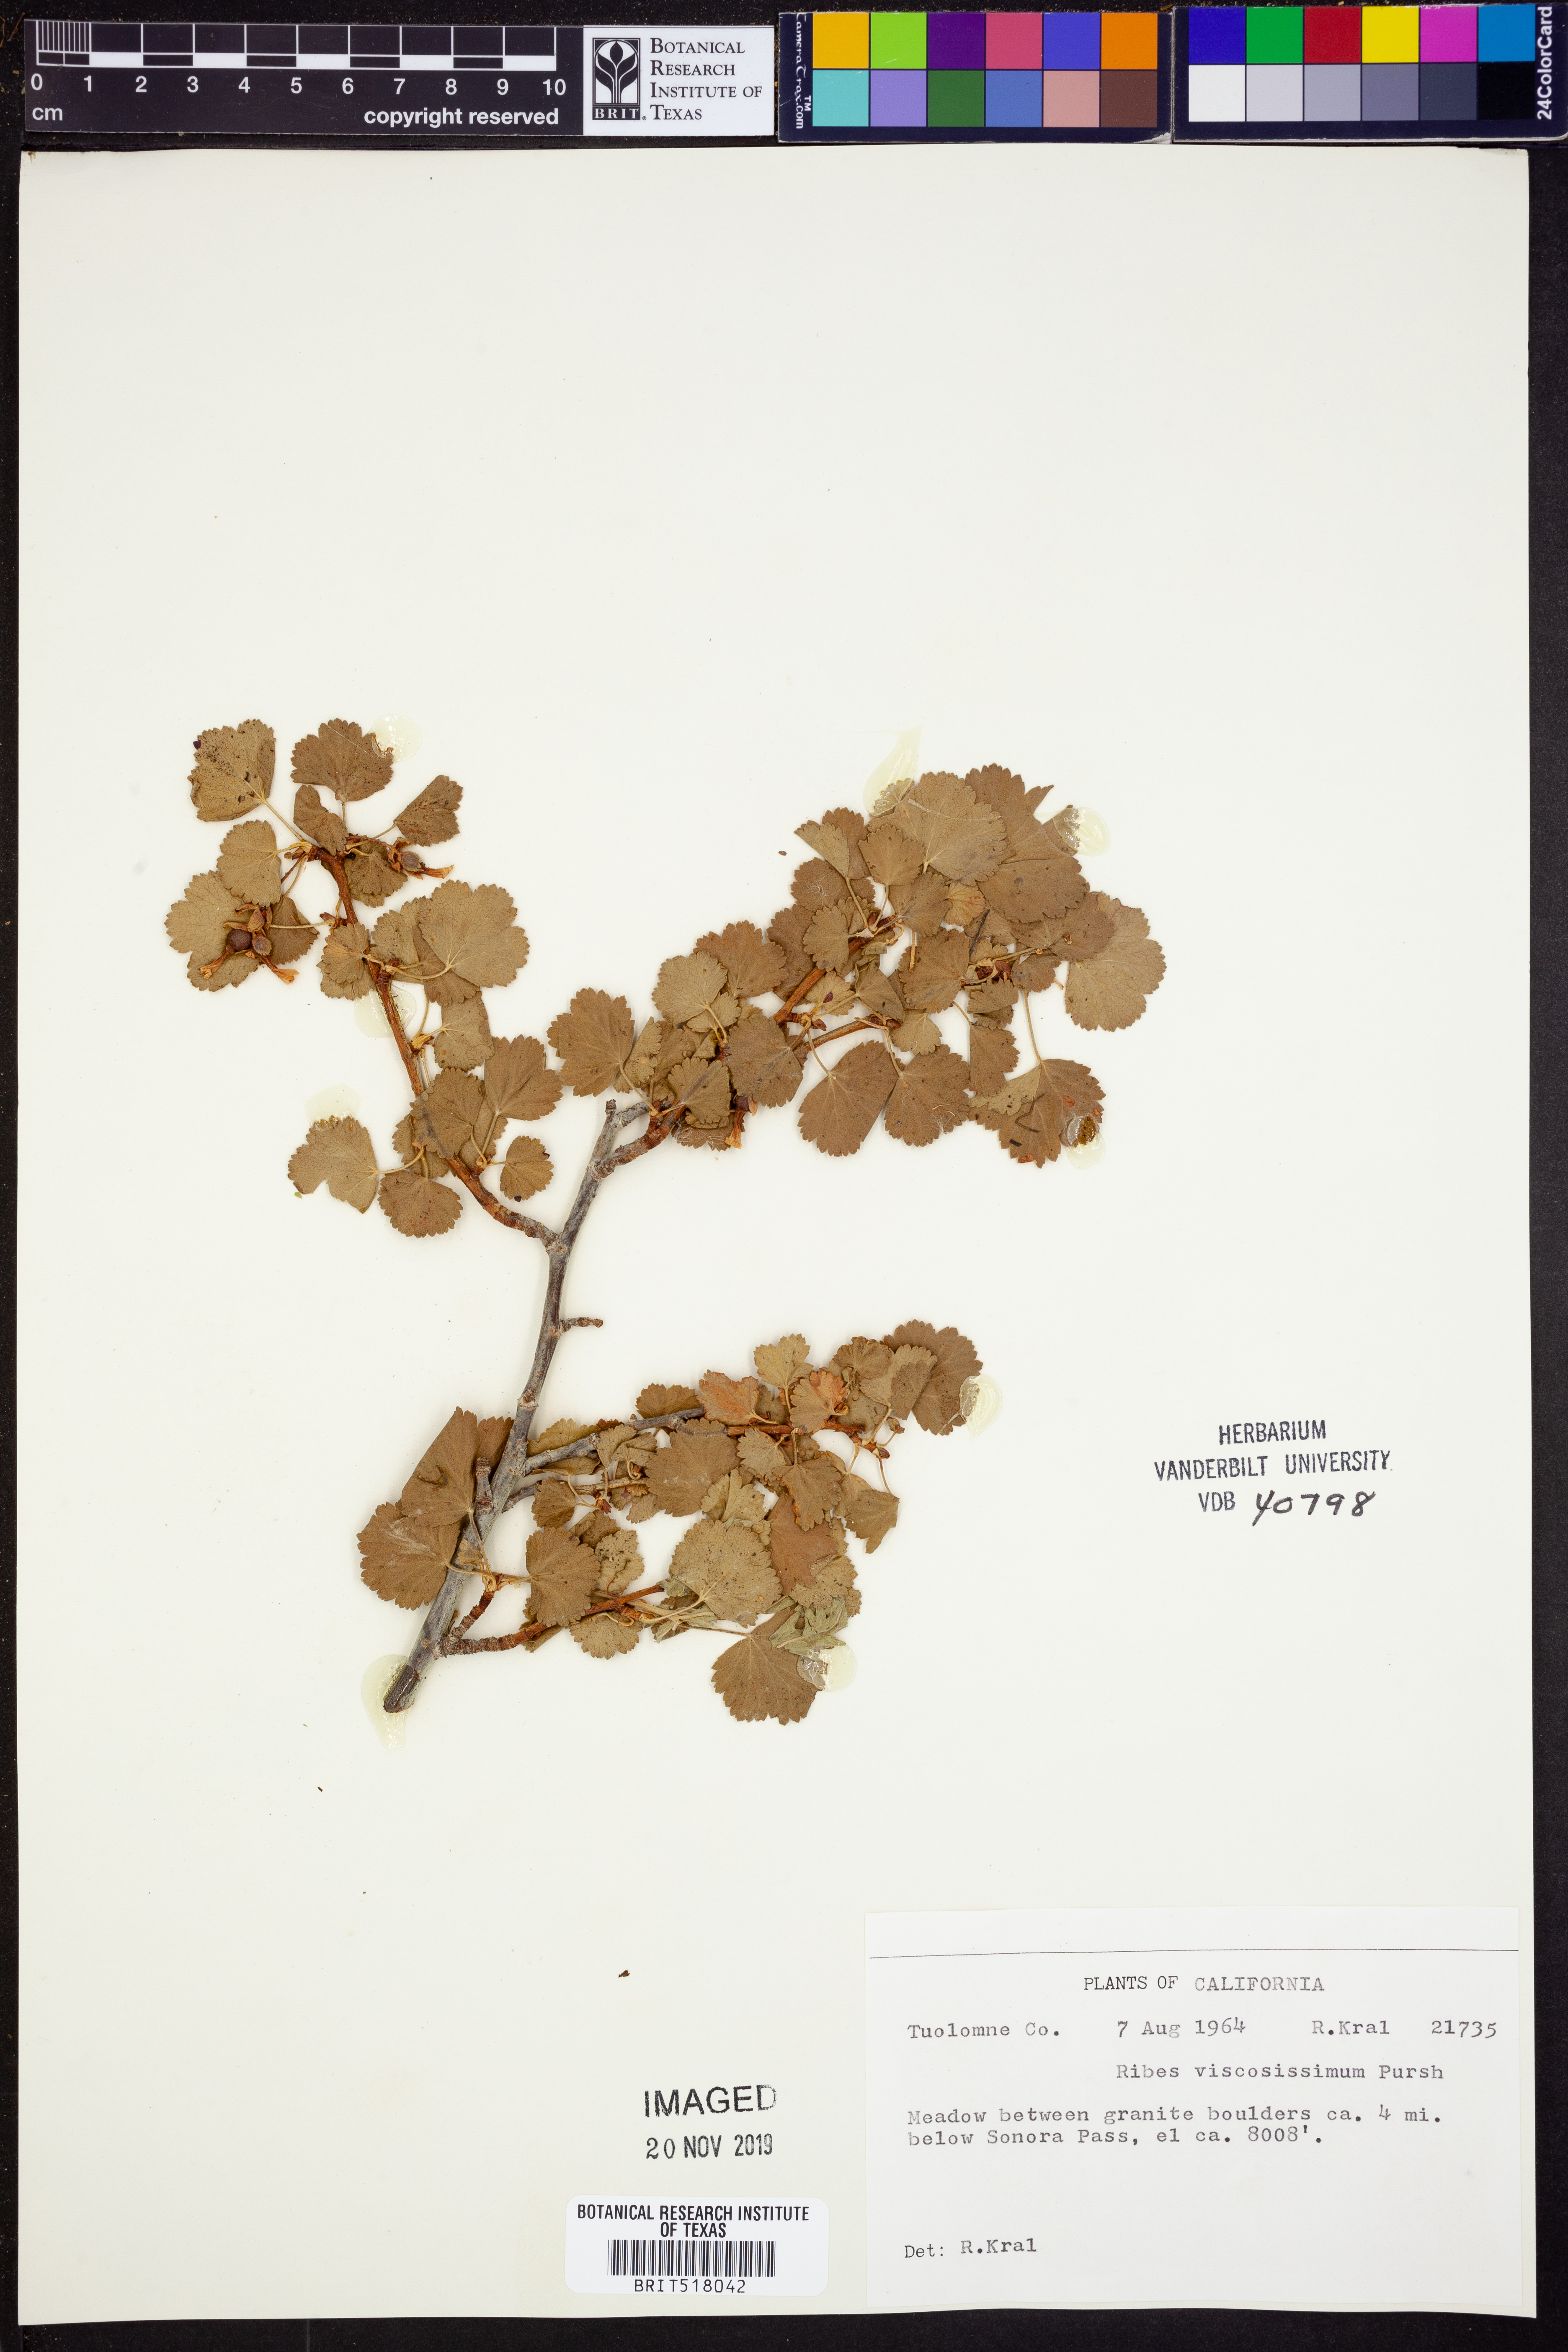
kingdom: Plantae
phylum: Tracheophyta
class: Magnoliopsida
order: Saxifragales
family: Grossulariaceae
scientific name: Grossulariaceae
